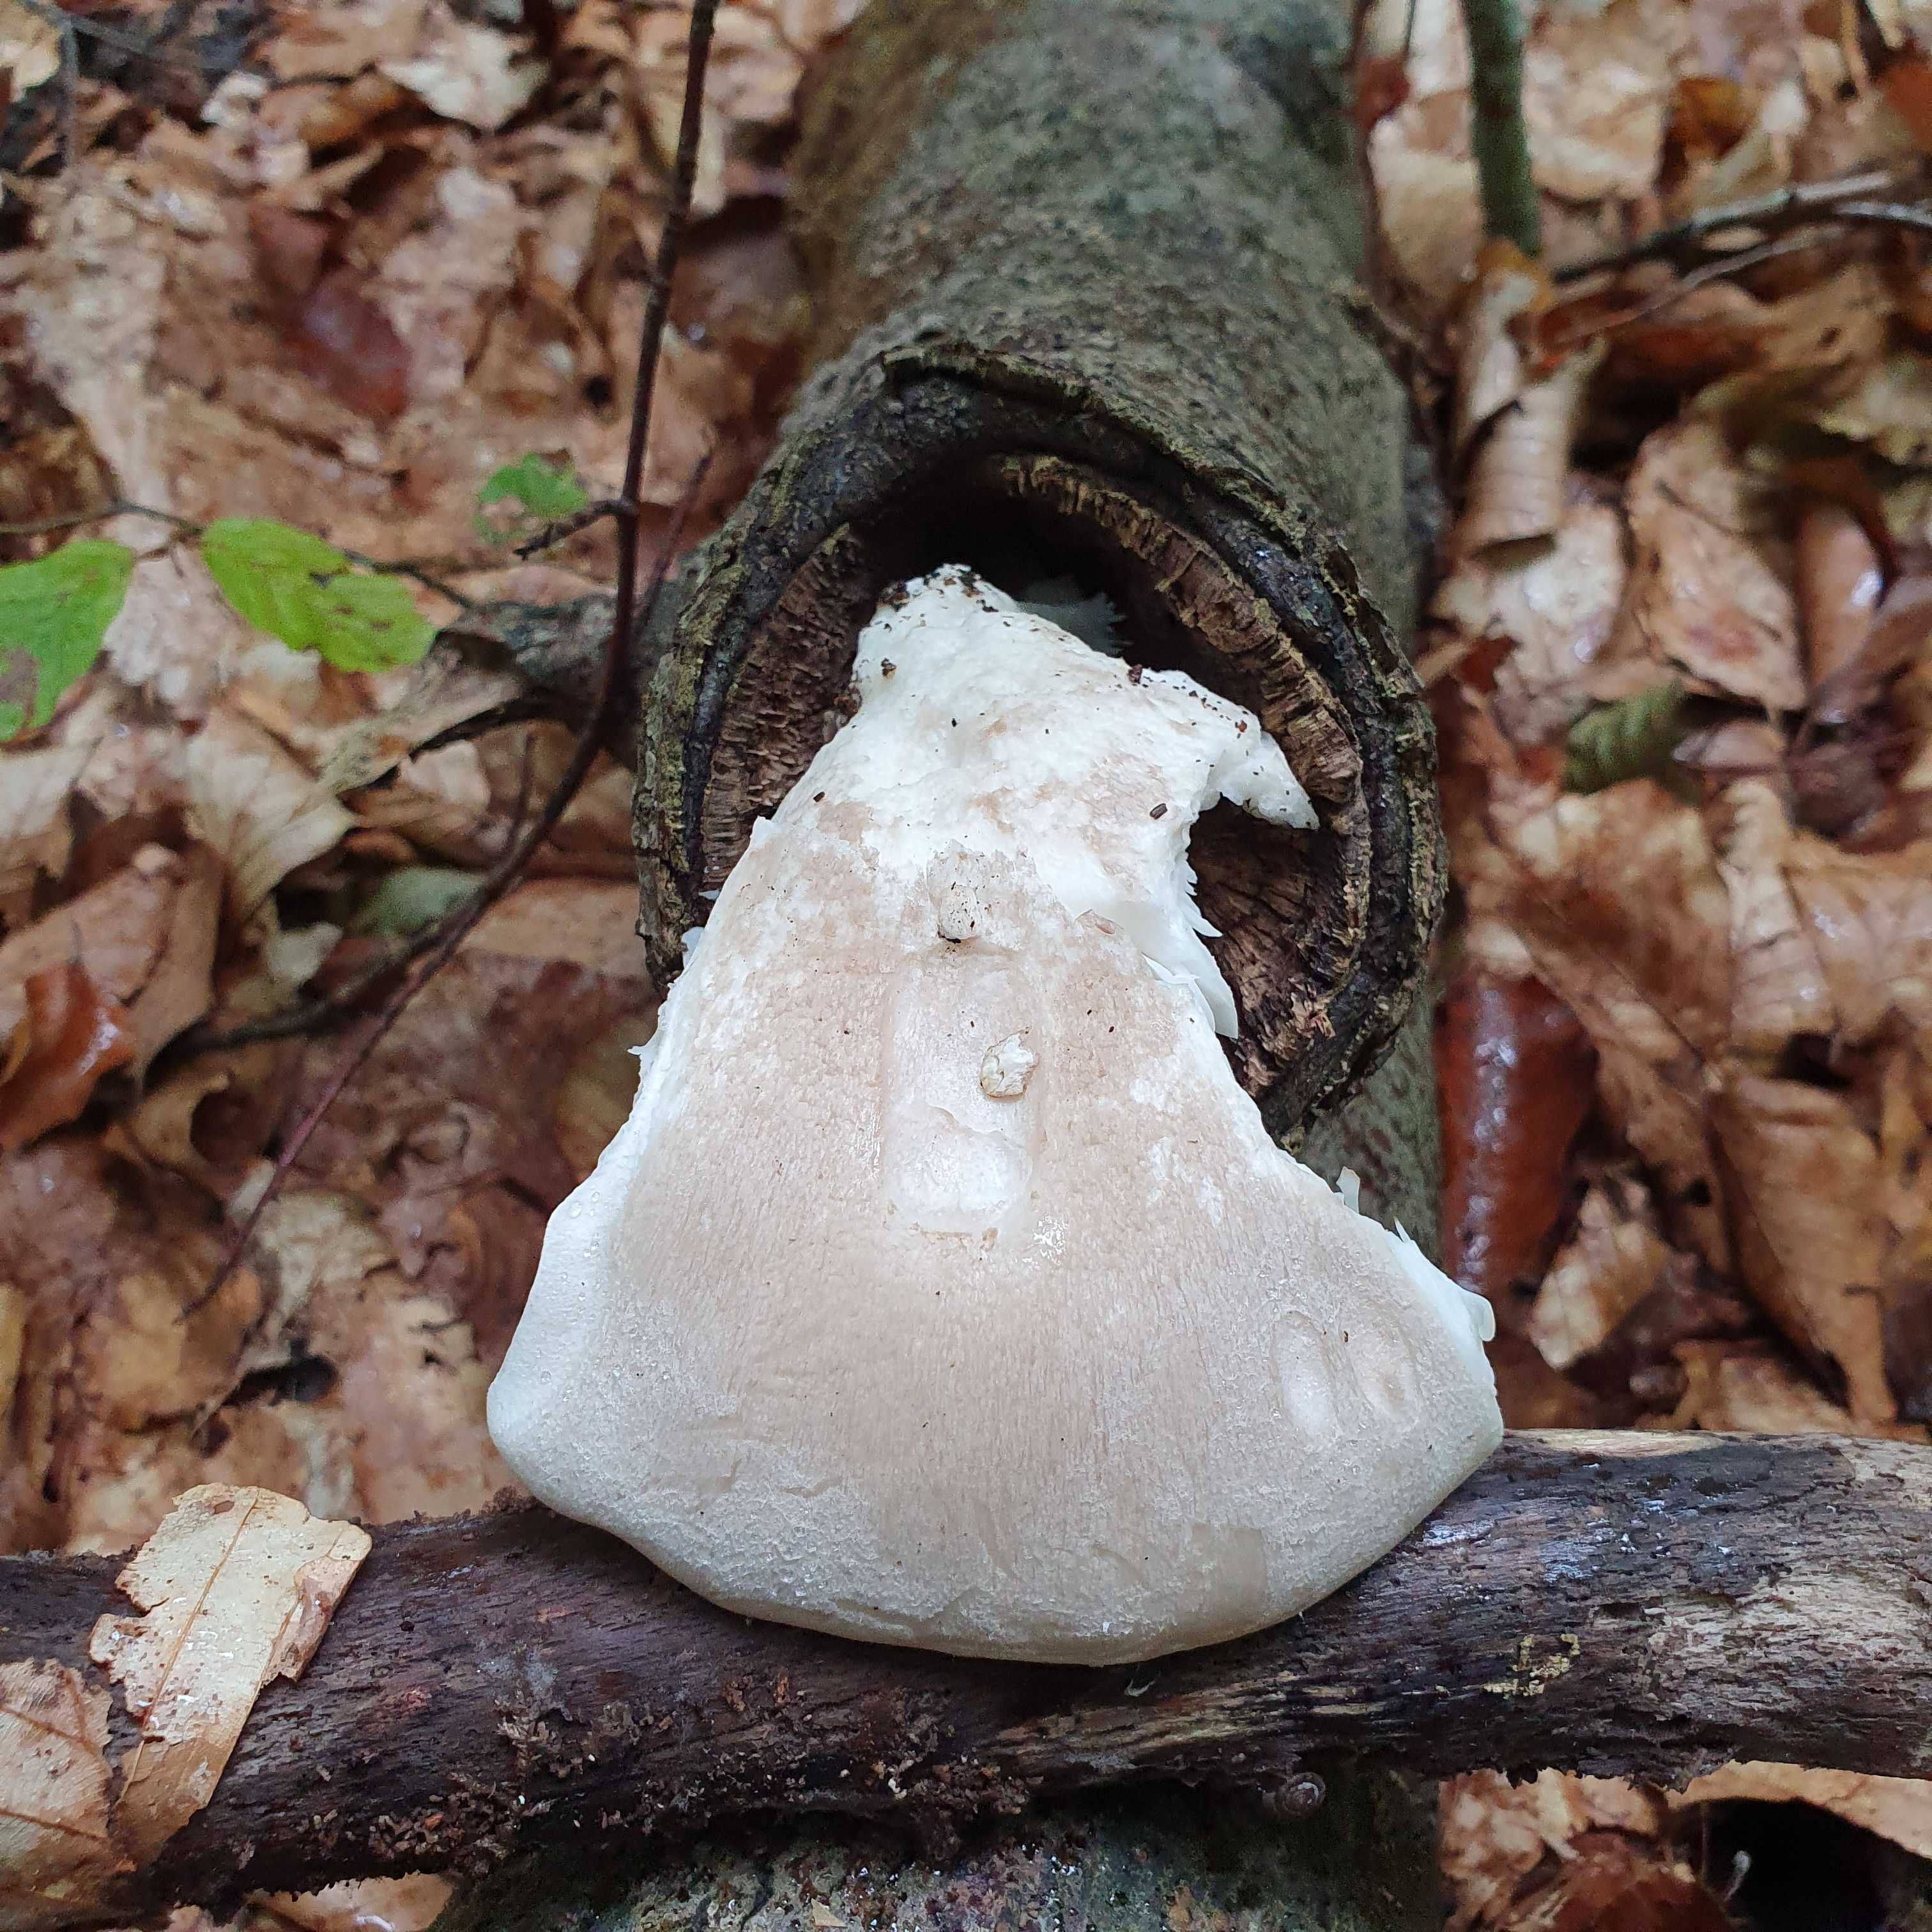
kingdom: Fungi
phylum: Basidiomycota
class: Agaricomycetes
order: Agaricales
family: Pleurotaceae
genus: Pleurotus
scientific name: Pleurotus dryinus
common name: korkagtig østershat
